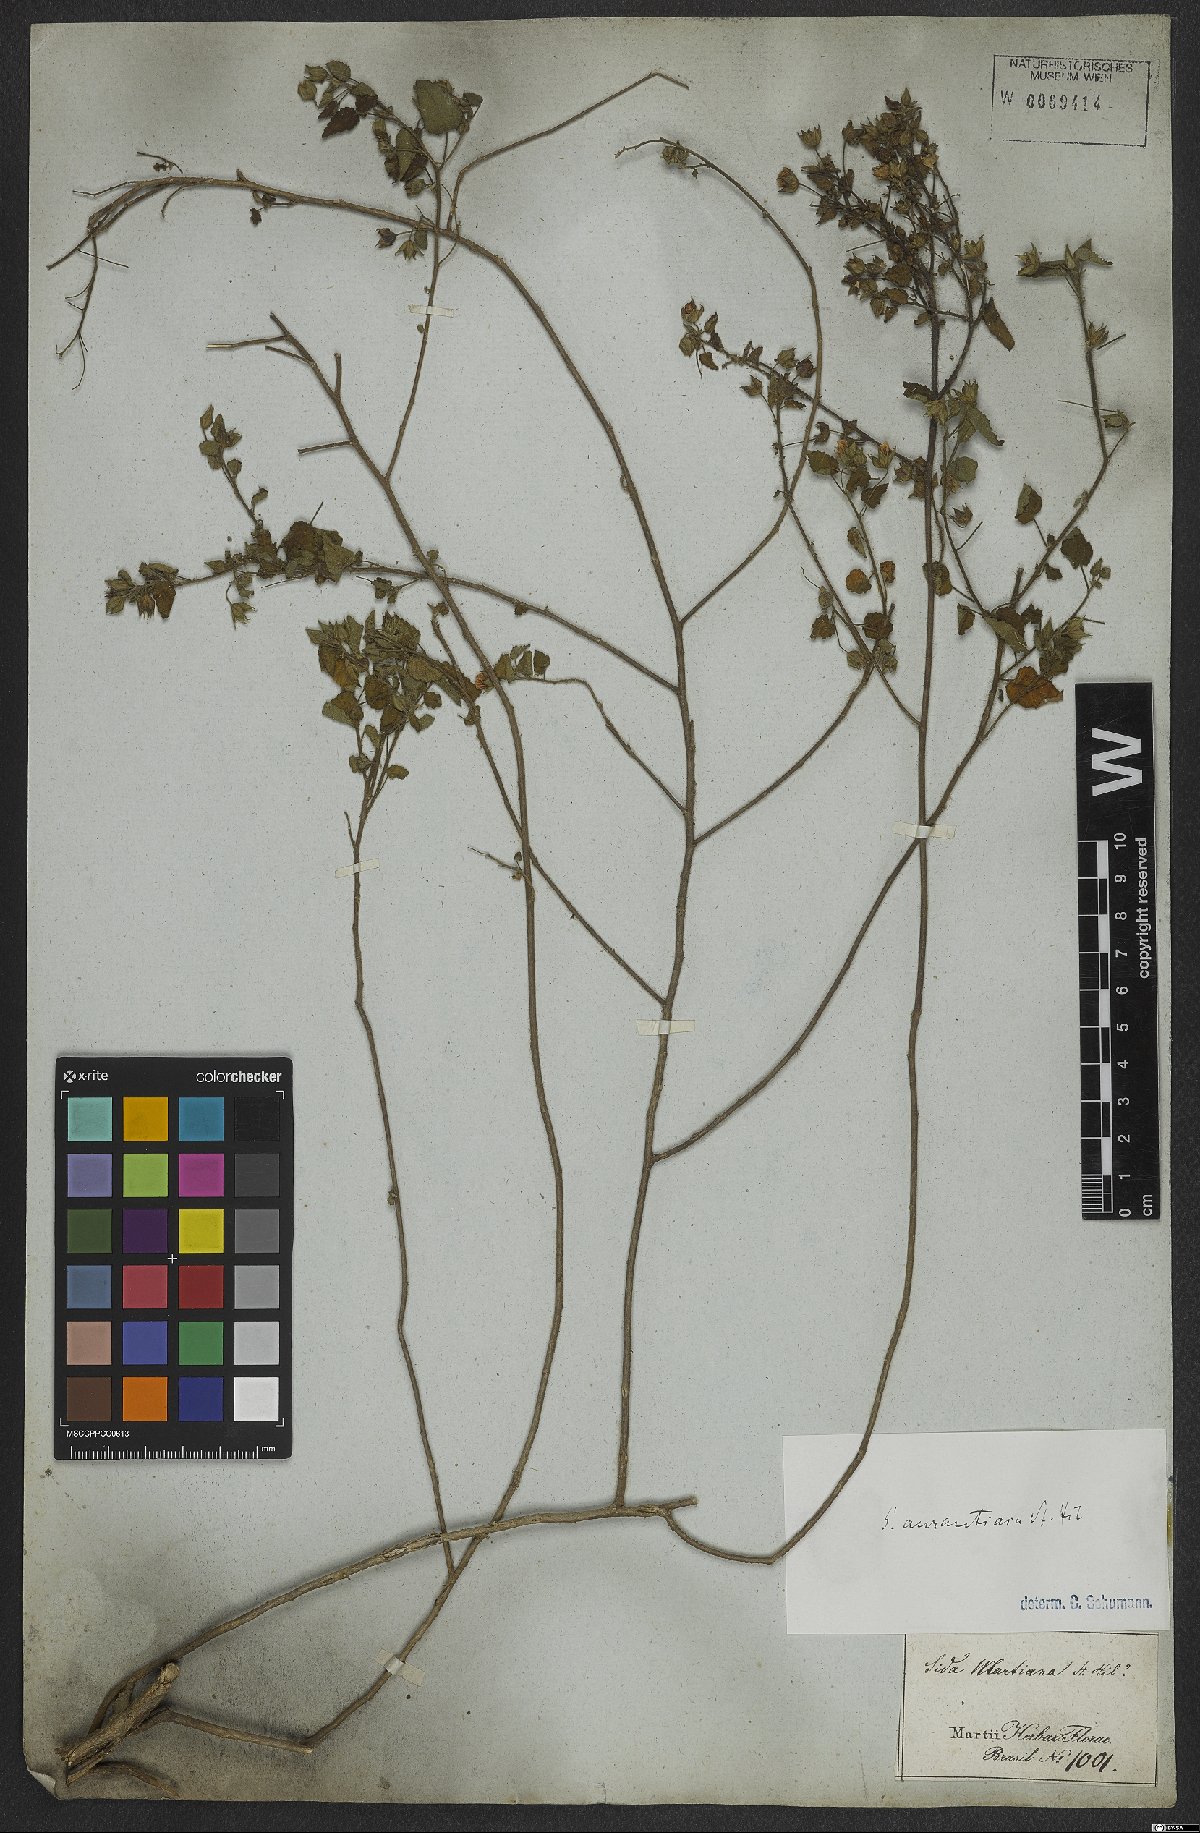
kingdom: Plantae
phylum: Tracheophyta
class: Magnoliopsida
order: Malvales
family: Malvaceae
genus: Sida
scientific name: Sida aurantiaca
